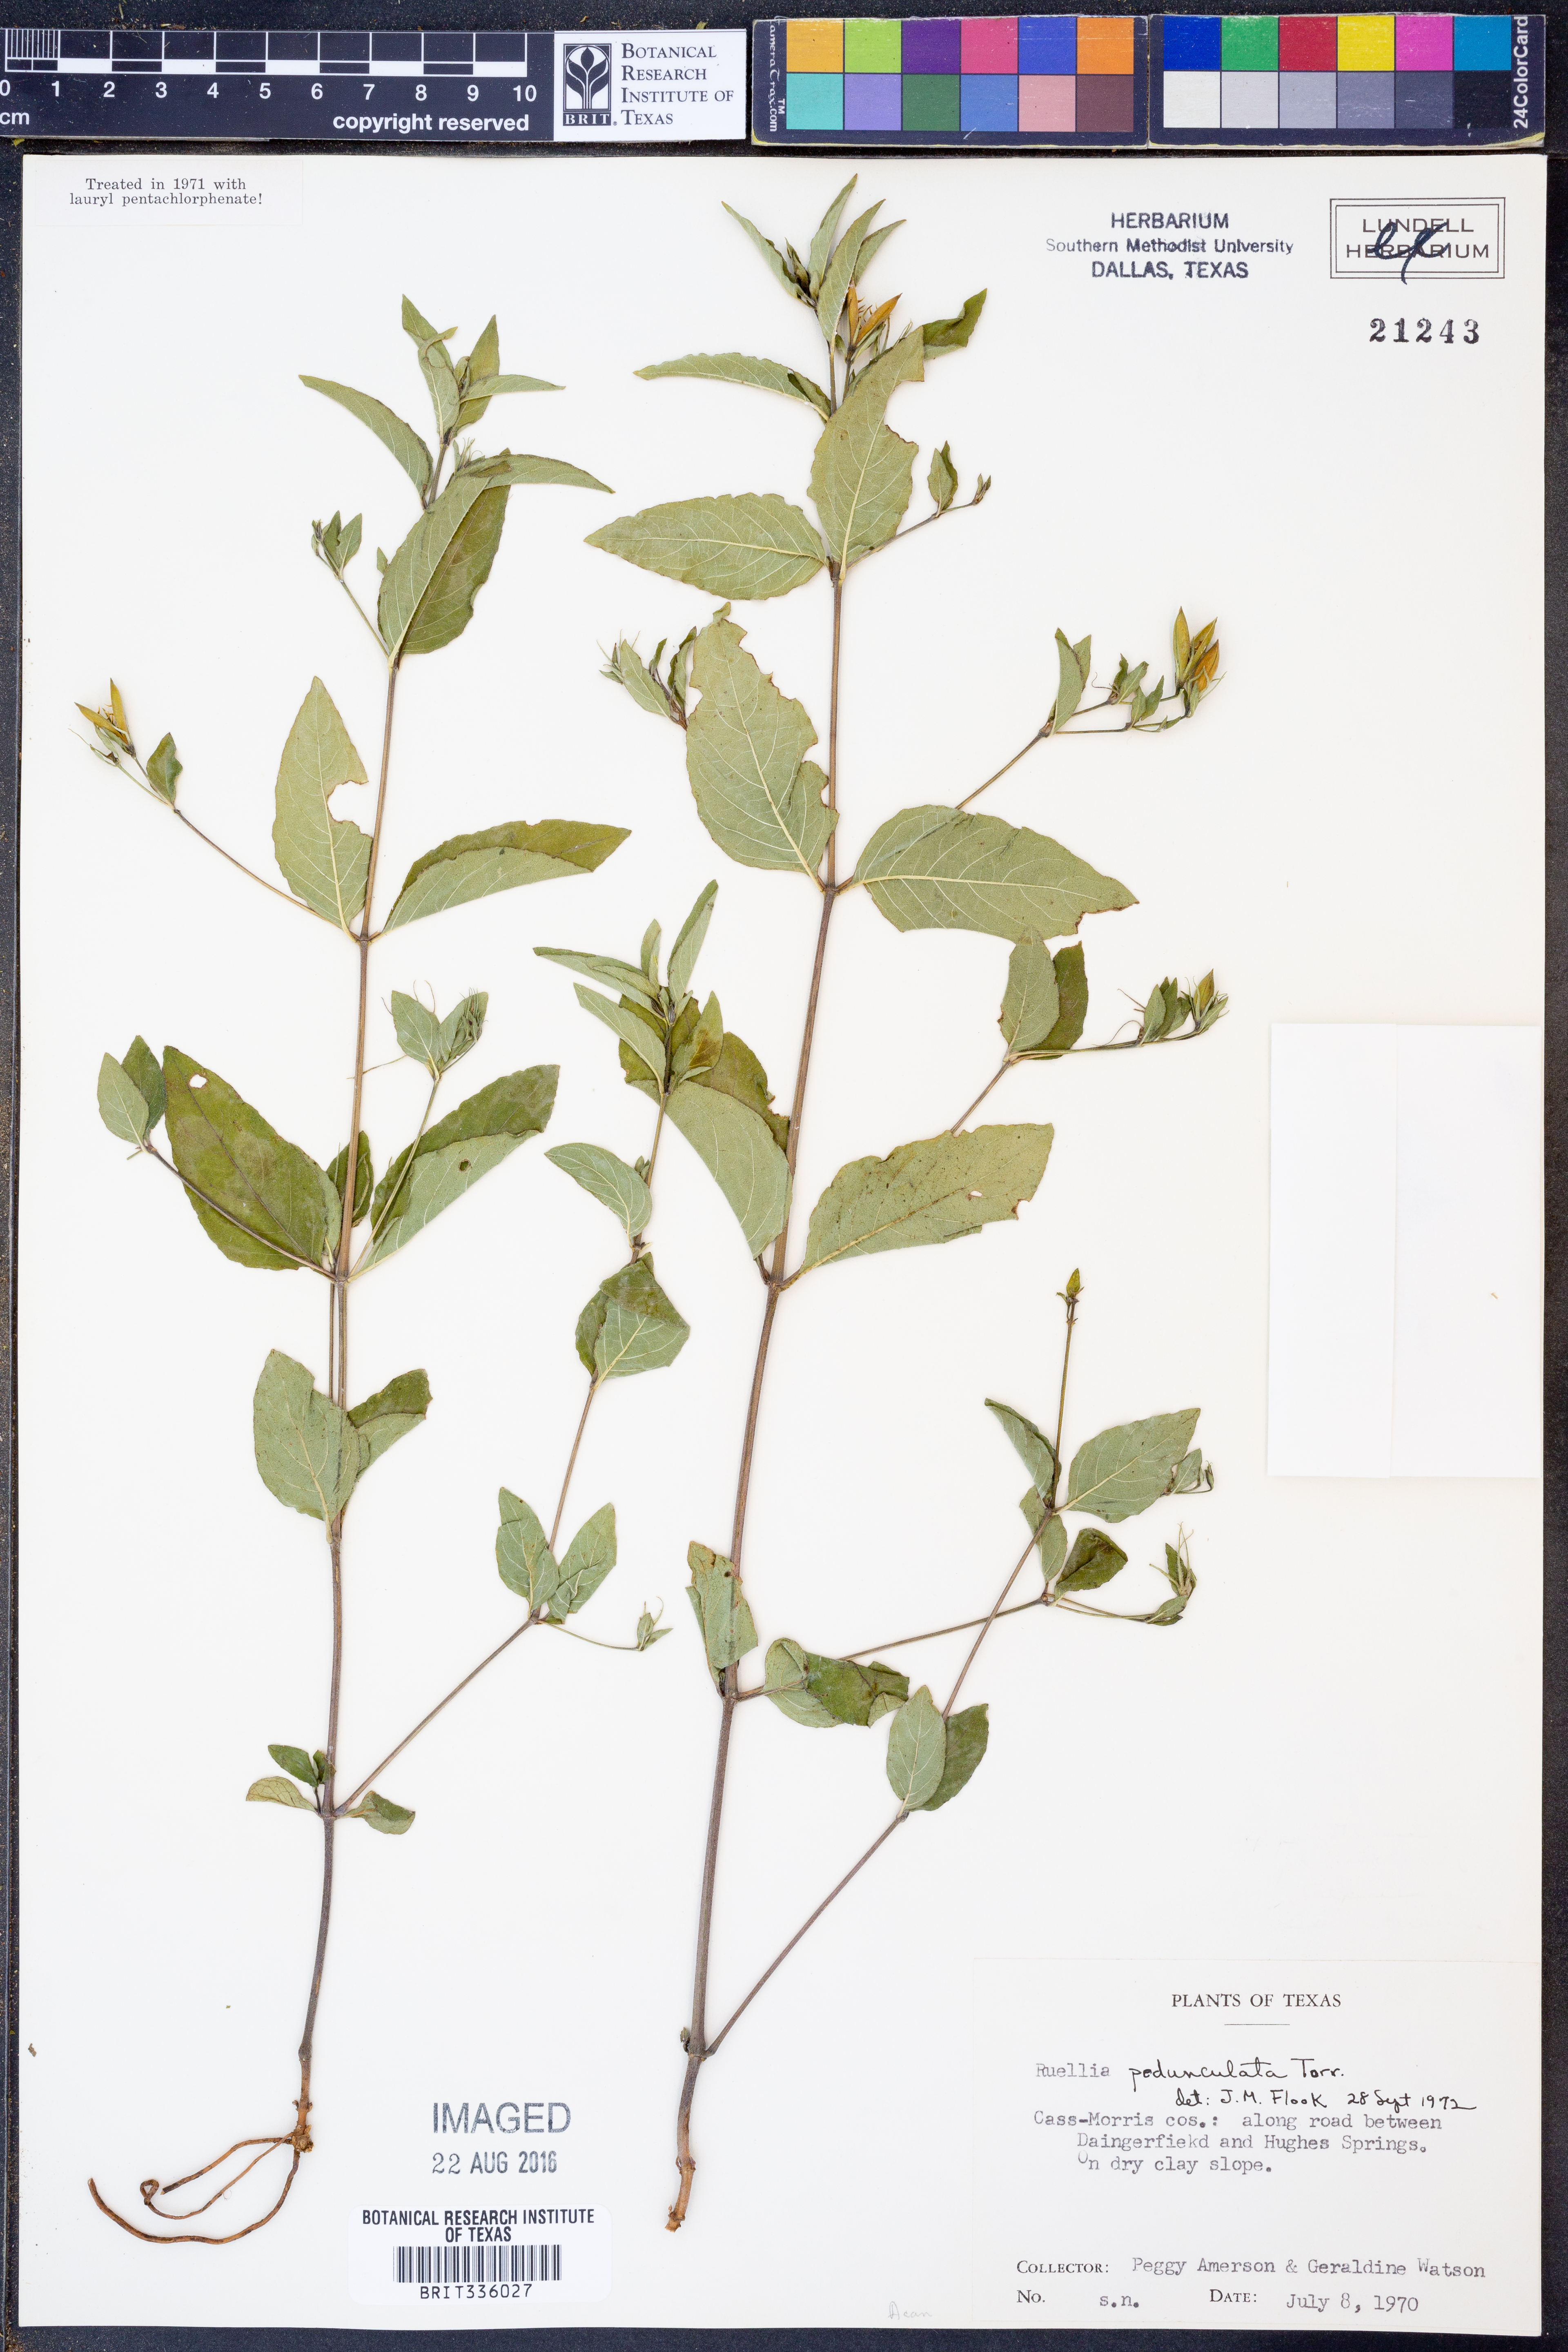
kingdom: Plantae
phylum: Tracheophyta
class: Magnoliopsida
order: Lamiales
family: Acanthaceae
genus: Ruellia
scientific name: Ruellia pedunculata
